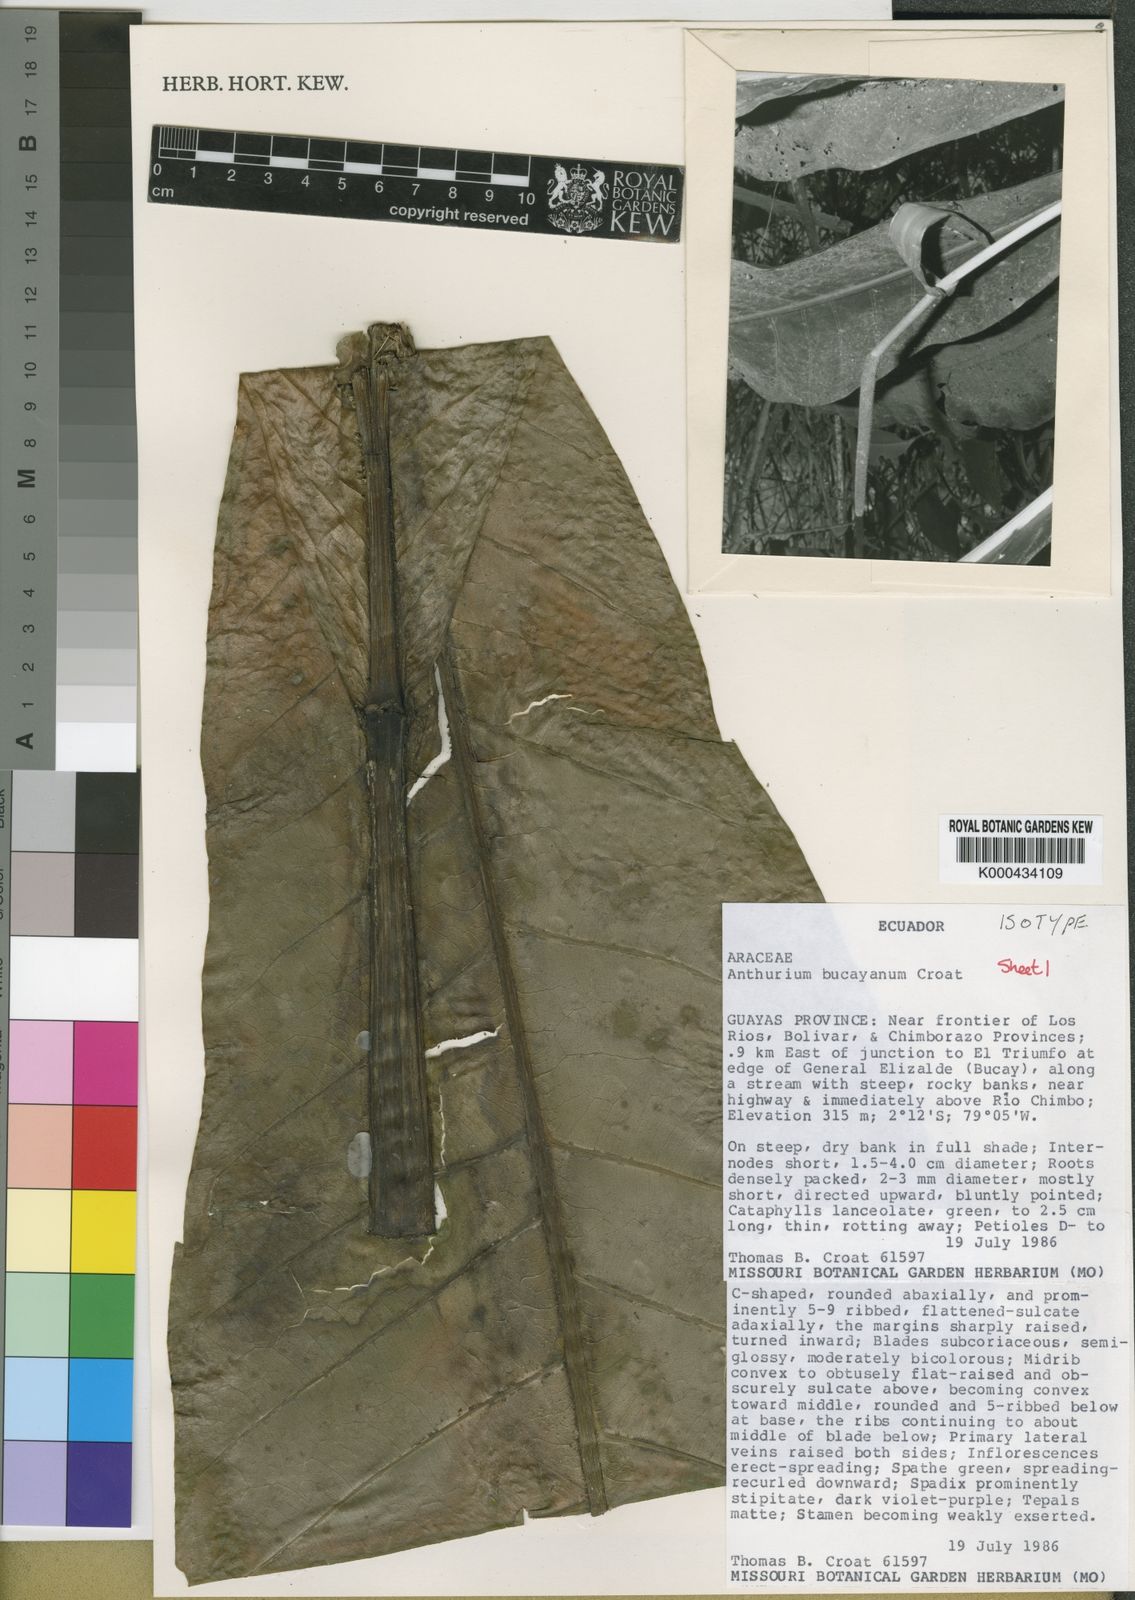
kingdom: Plantae
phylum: Tracheophyta
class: Liliopsida
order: Alismatales
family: Araceae
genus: Anthurium
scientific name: Anthurium bucayanum
